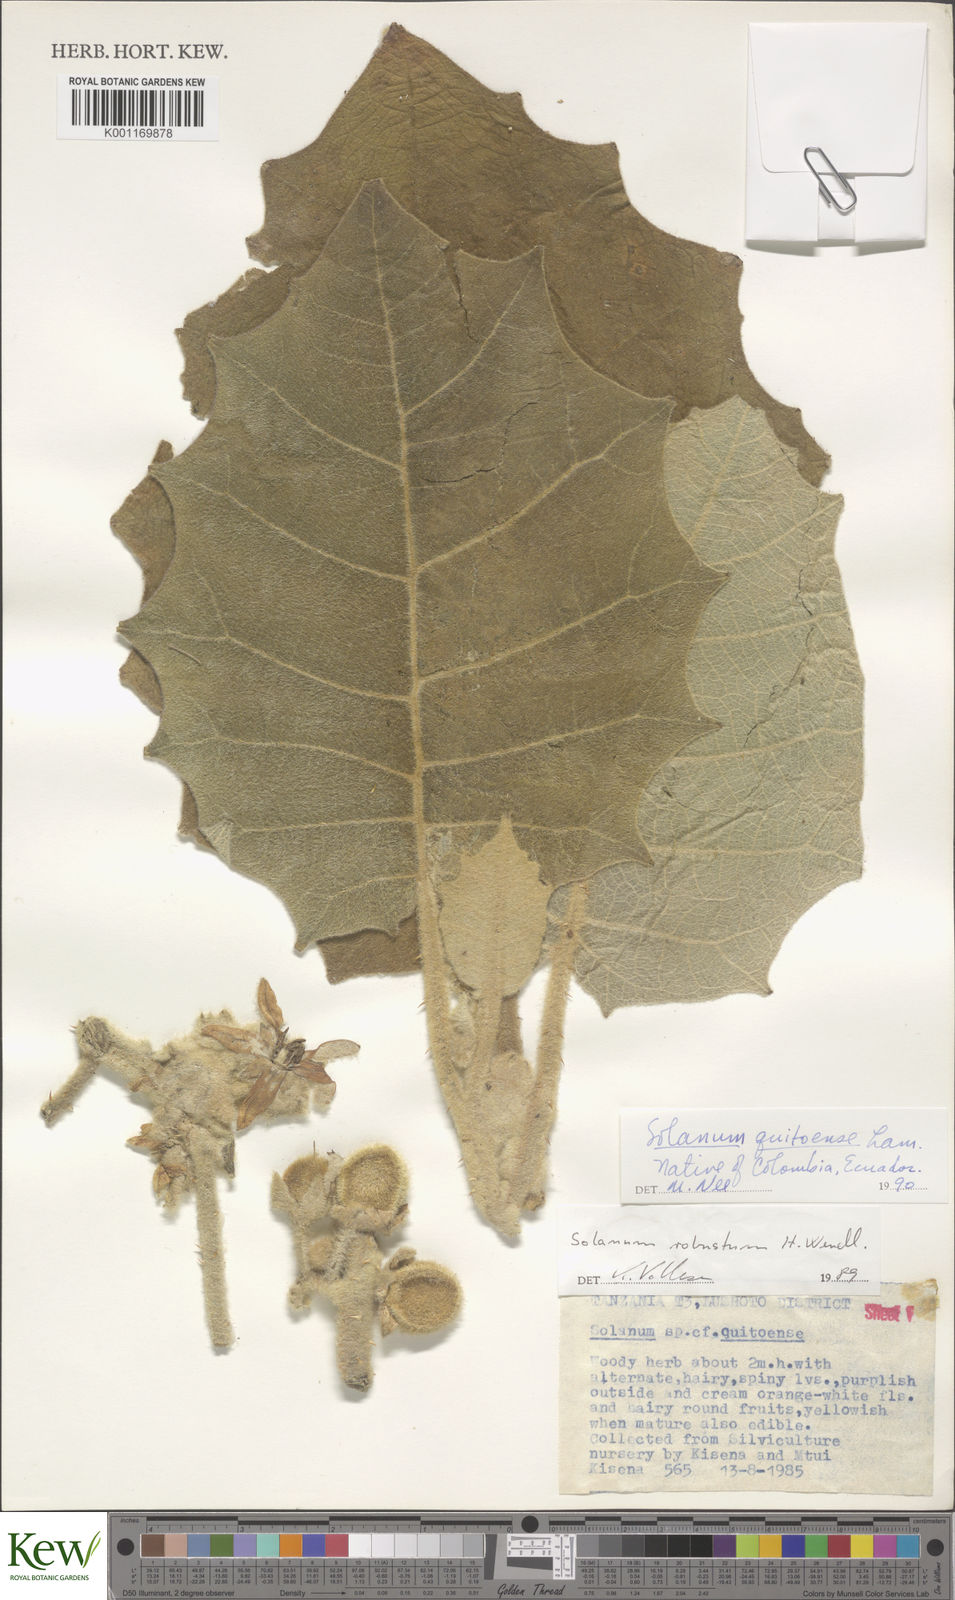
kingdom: Plantae
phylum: Tracheophyta
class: Magnoliopsida
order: Solanales
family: Solanaceae
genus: Solanum
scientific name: Solanum quitoense
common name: Quito-orange
